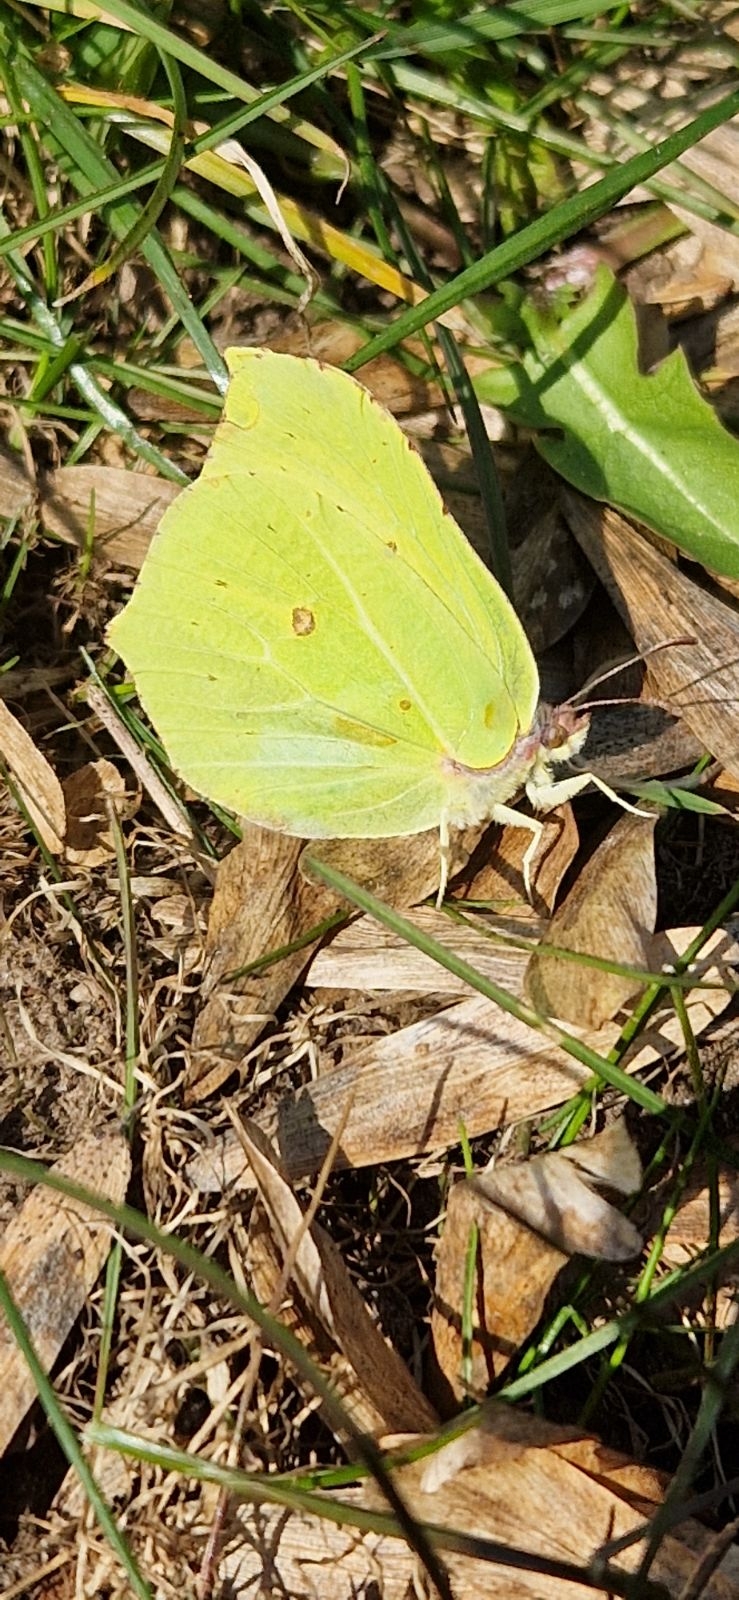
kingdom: Animalia
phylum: Arthropoda
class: Insecta
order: Lepidoptera
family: Pieridae
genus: Gonepteryx
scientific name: Gonepteryx rhamni
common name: Citronsommerfugl
